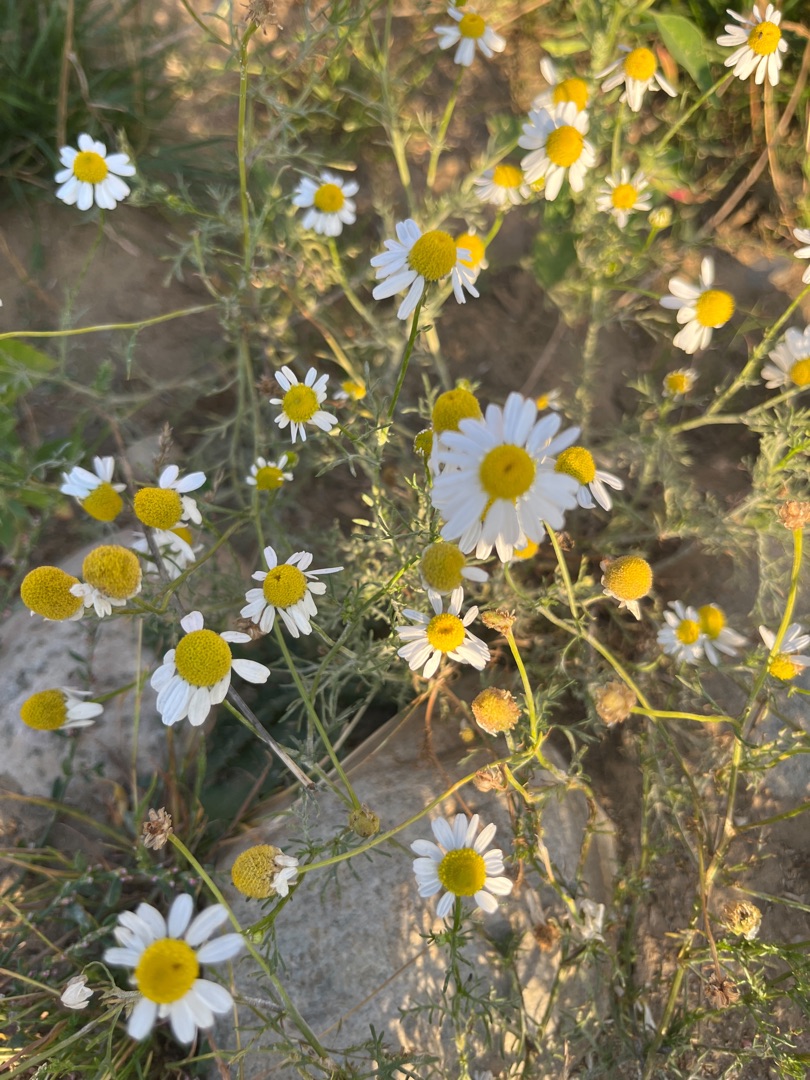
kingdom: Plantae
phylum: Tracheophyta
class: Magnoliopsida
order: Asterales
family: Asteraceae
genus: Matricaria
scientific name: Matricaria chamomilla
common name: Vellugtende kamille
